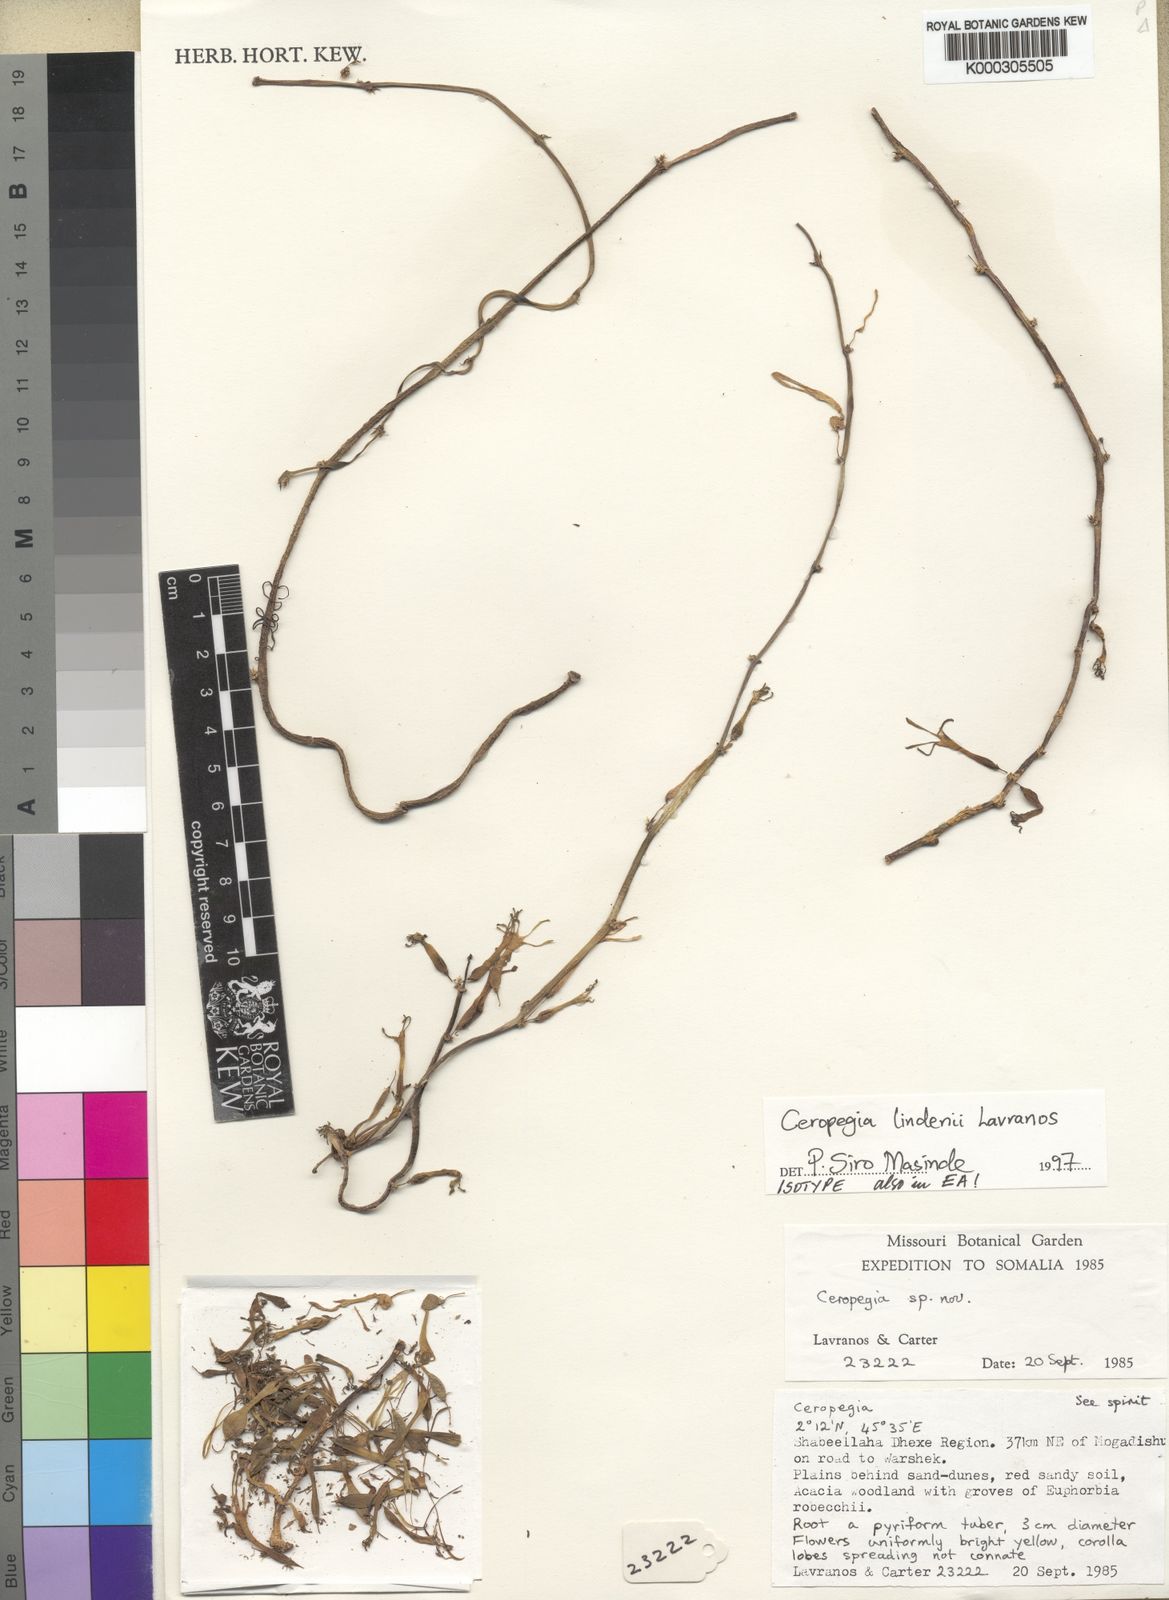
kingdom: Plantae
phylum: Tracheophyta
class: Magnoliopsida
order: Gentianales
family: Apocynaceae
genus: Ceropegia
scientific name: Ceropegia lindenii
